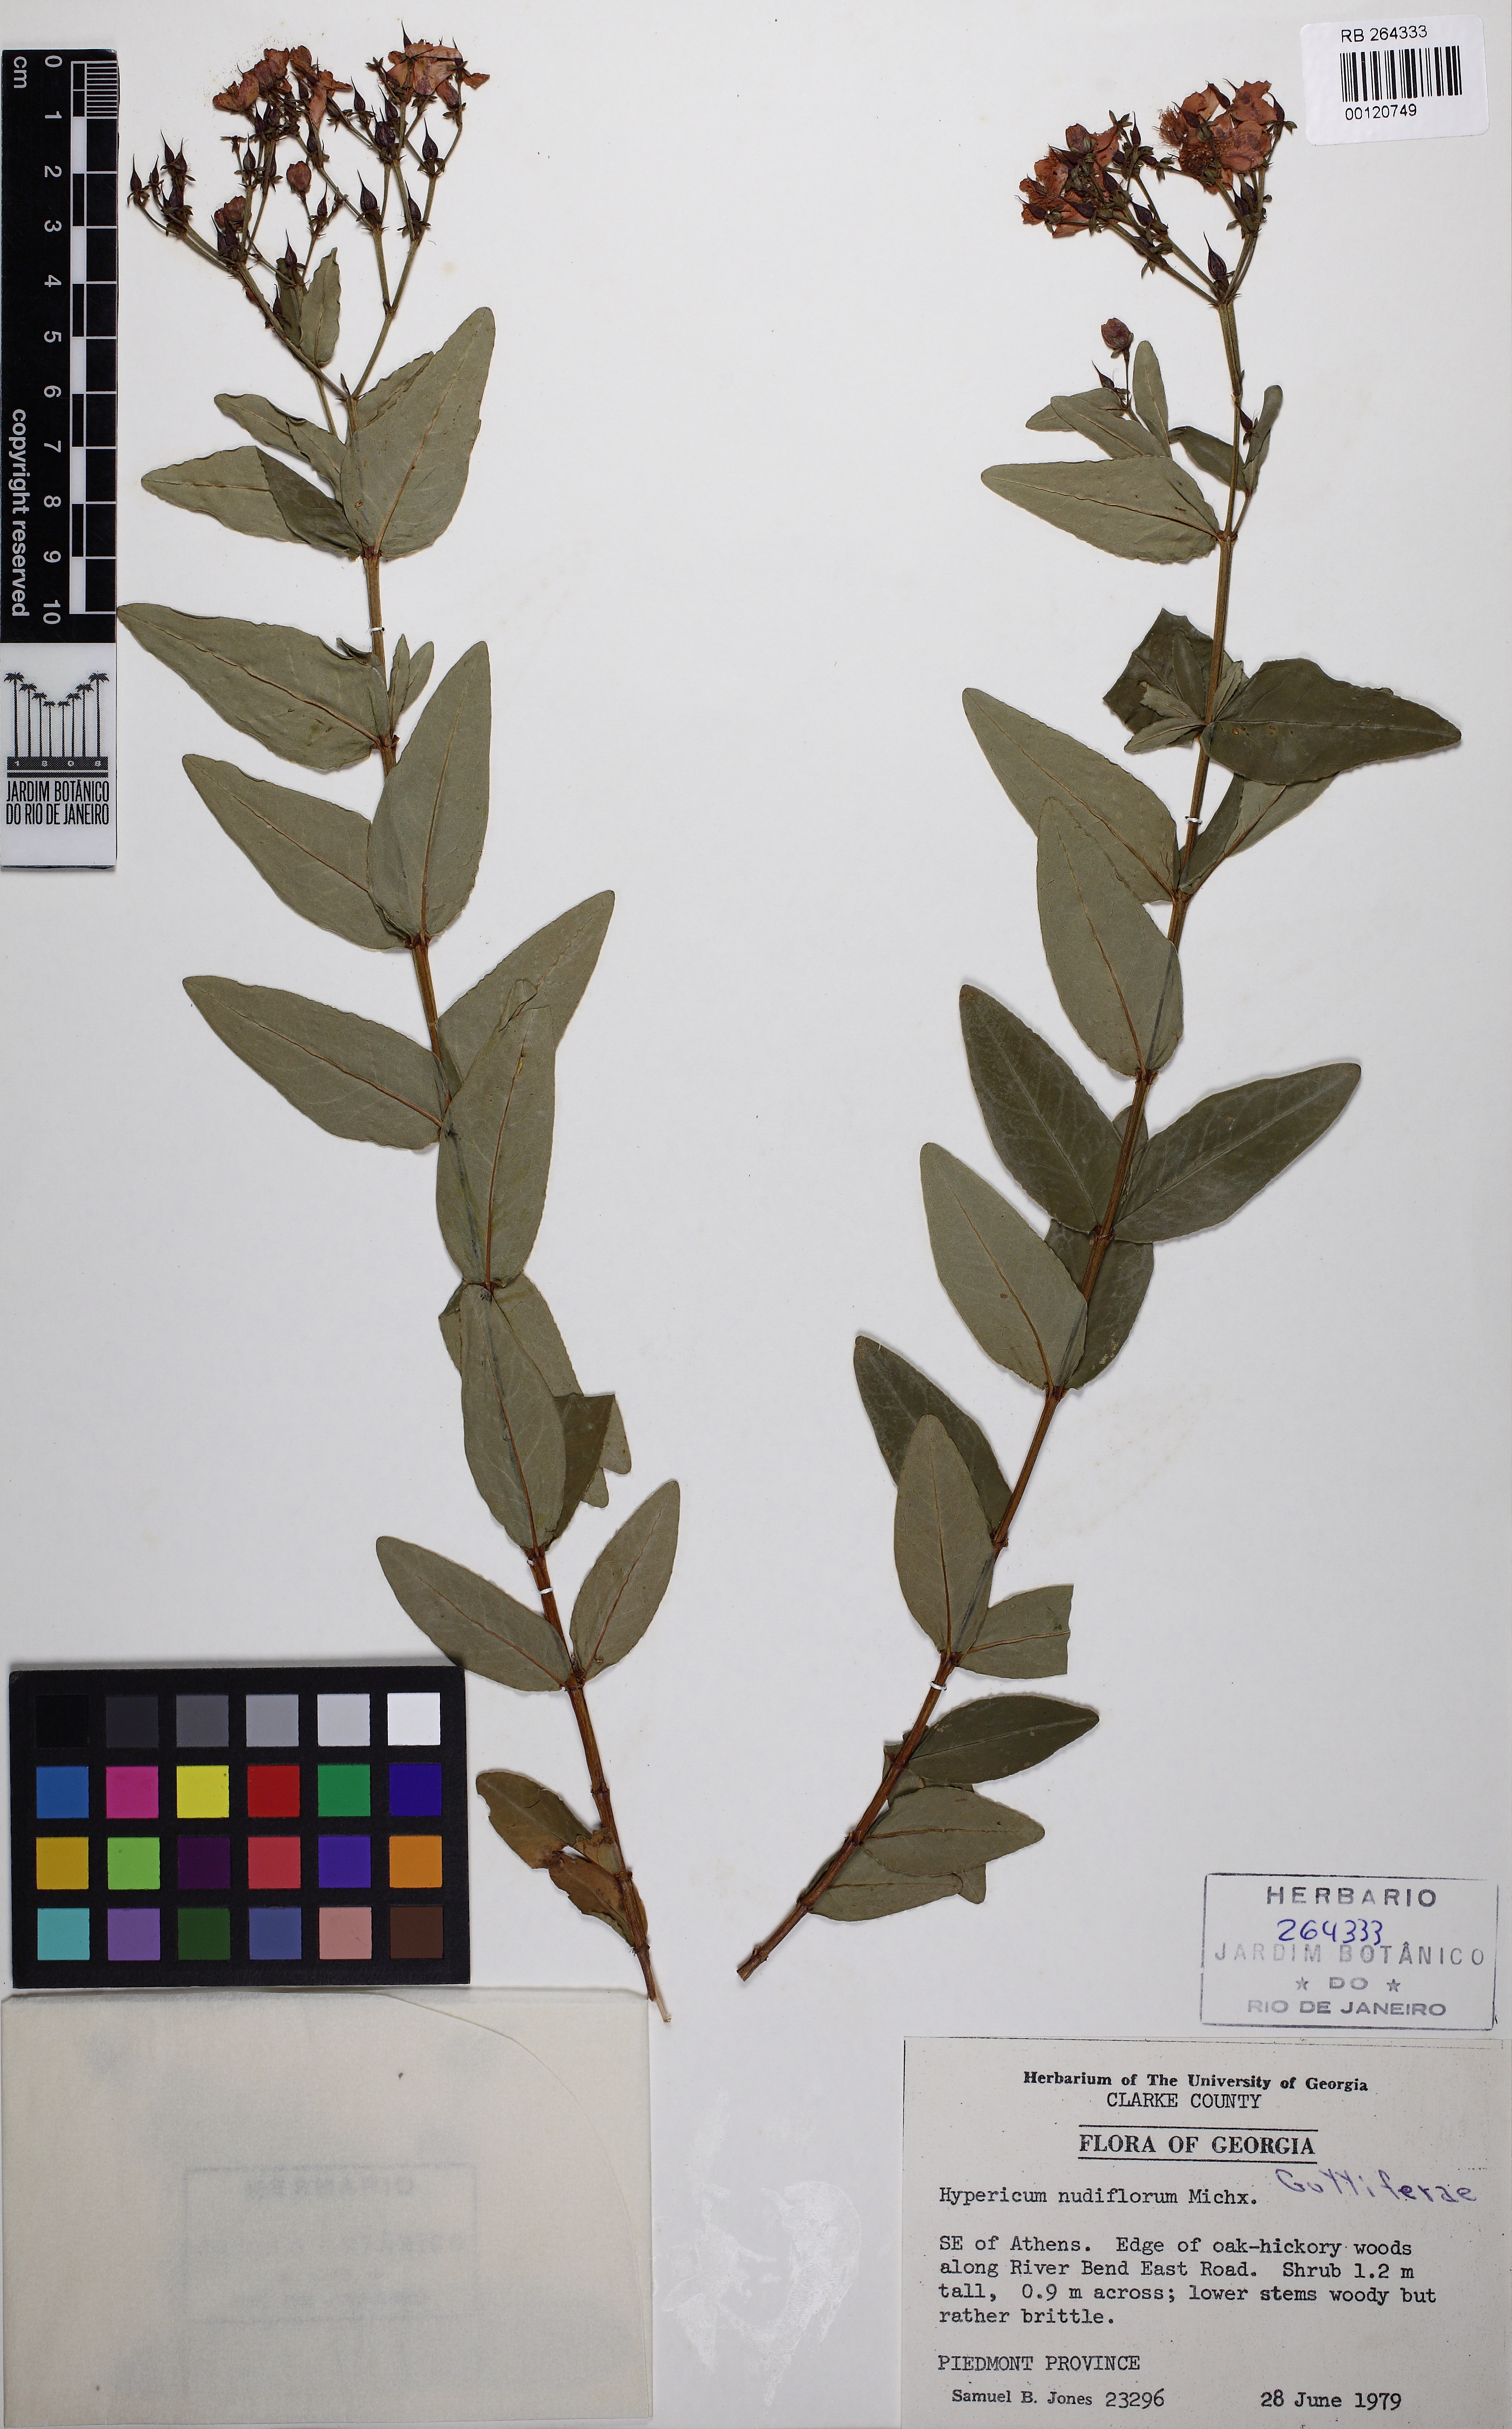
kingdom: Plantae
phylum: Tracheophyta
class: Magnoliopsida
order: Malpighiales
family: Hypericaceae
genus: Hypericum
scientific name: Hypericum nudiflorum
